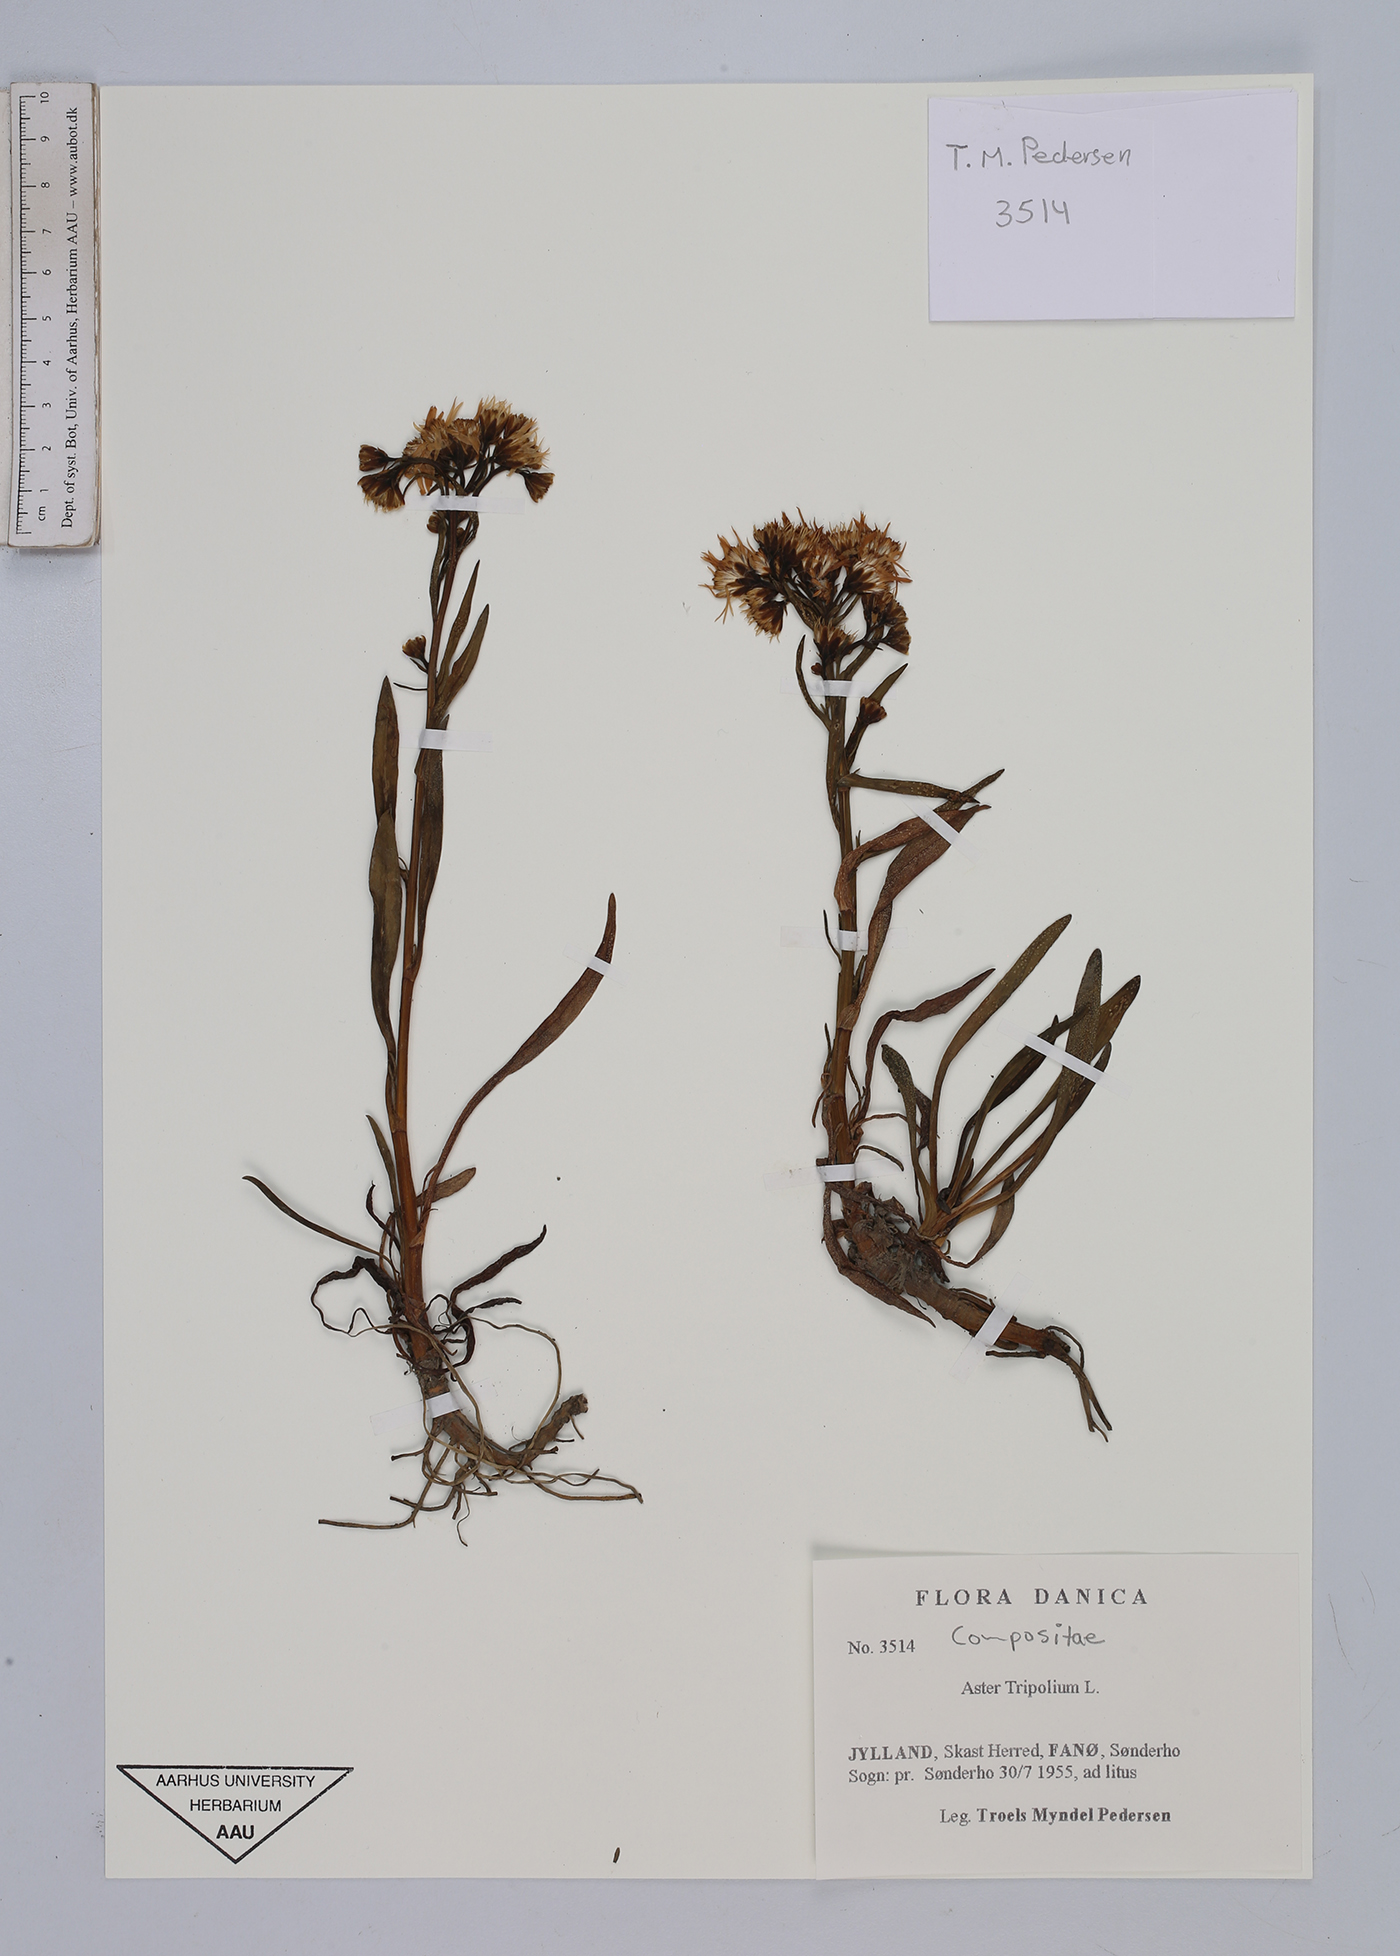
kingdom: Plantae
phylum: Tracheophyta
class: Magnoliopsida
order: Asterales
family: Asteraceae
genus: Tripolium
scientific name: Tripolium pannonicum
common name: Sea aster
